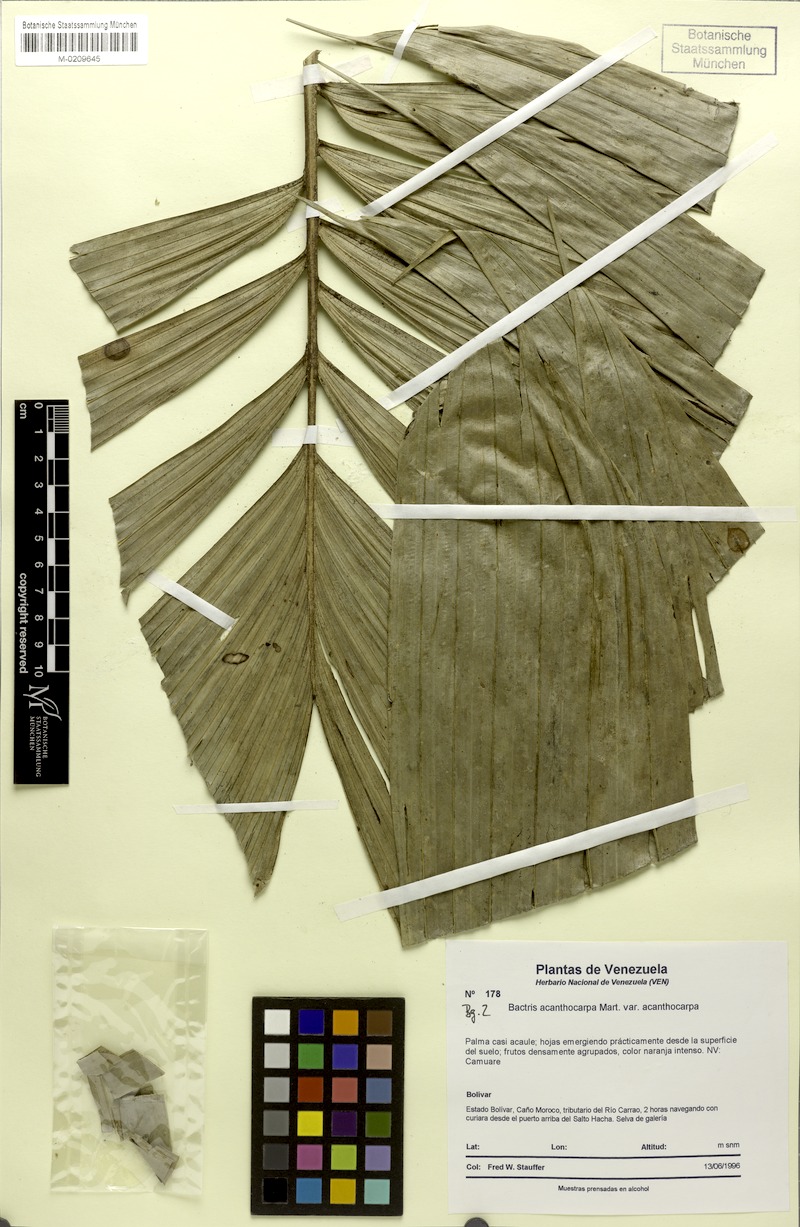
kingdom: Plantae
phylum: Tracheophyta
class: Liliopsida
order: Arecales
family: Arecaceae
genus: Bactris
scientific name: Bactris acanthocarpa
